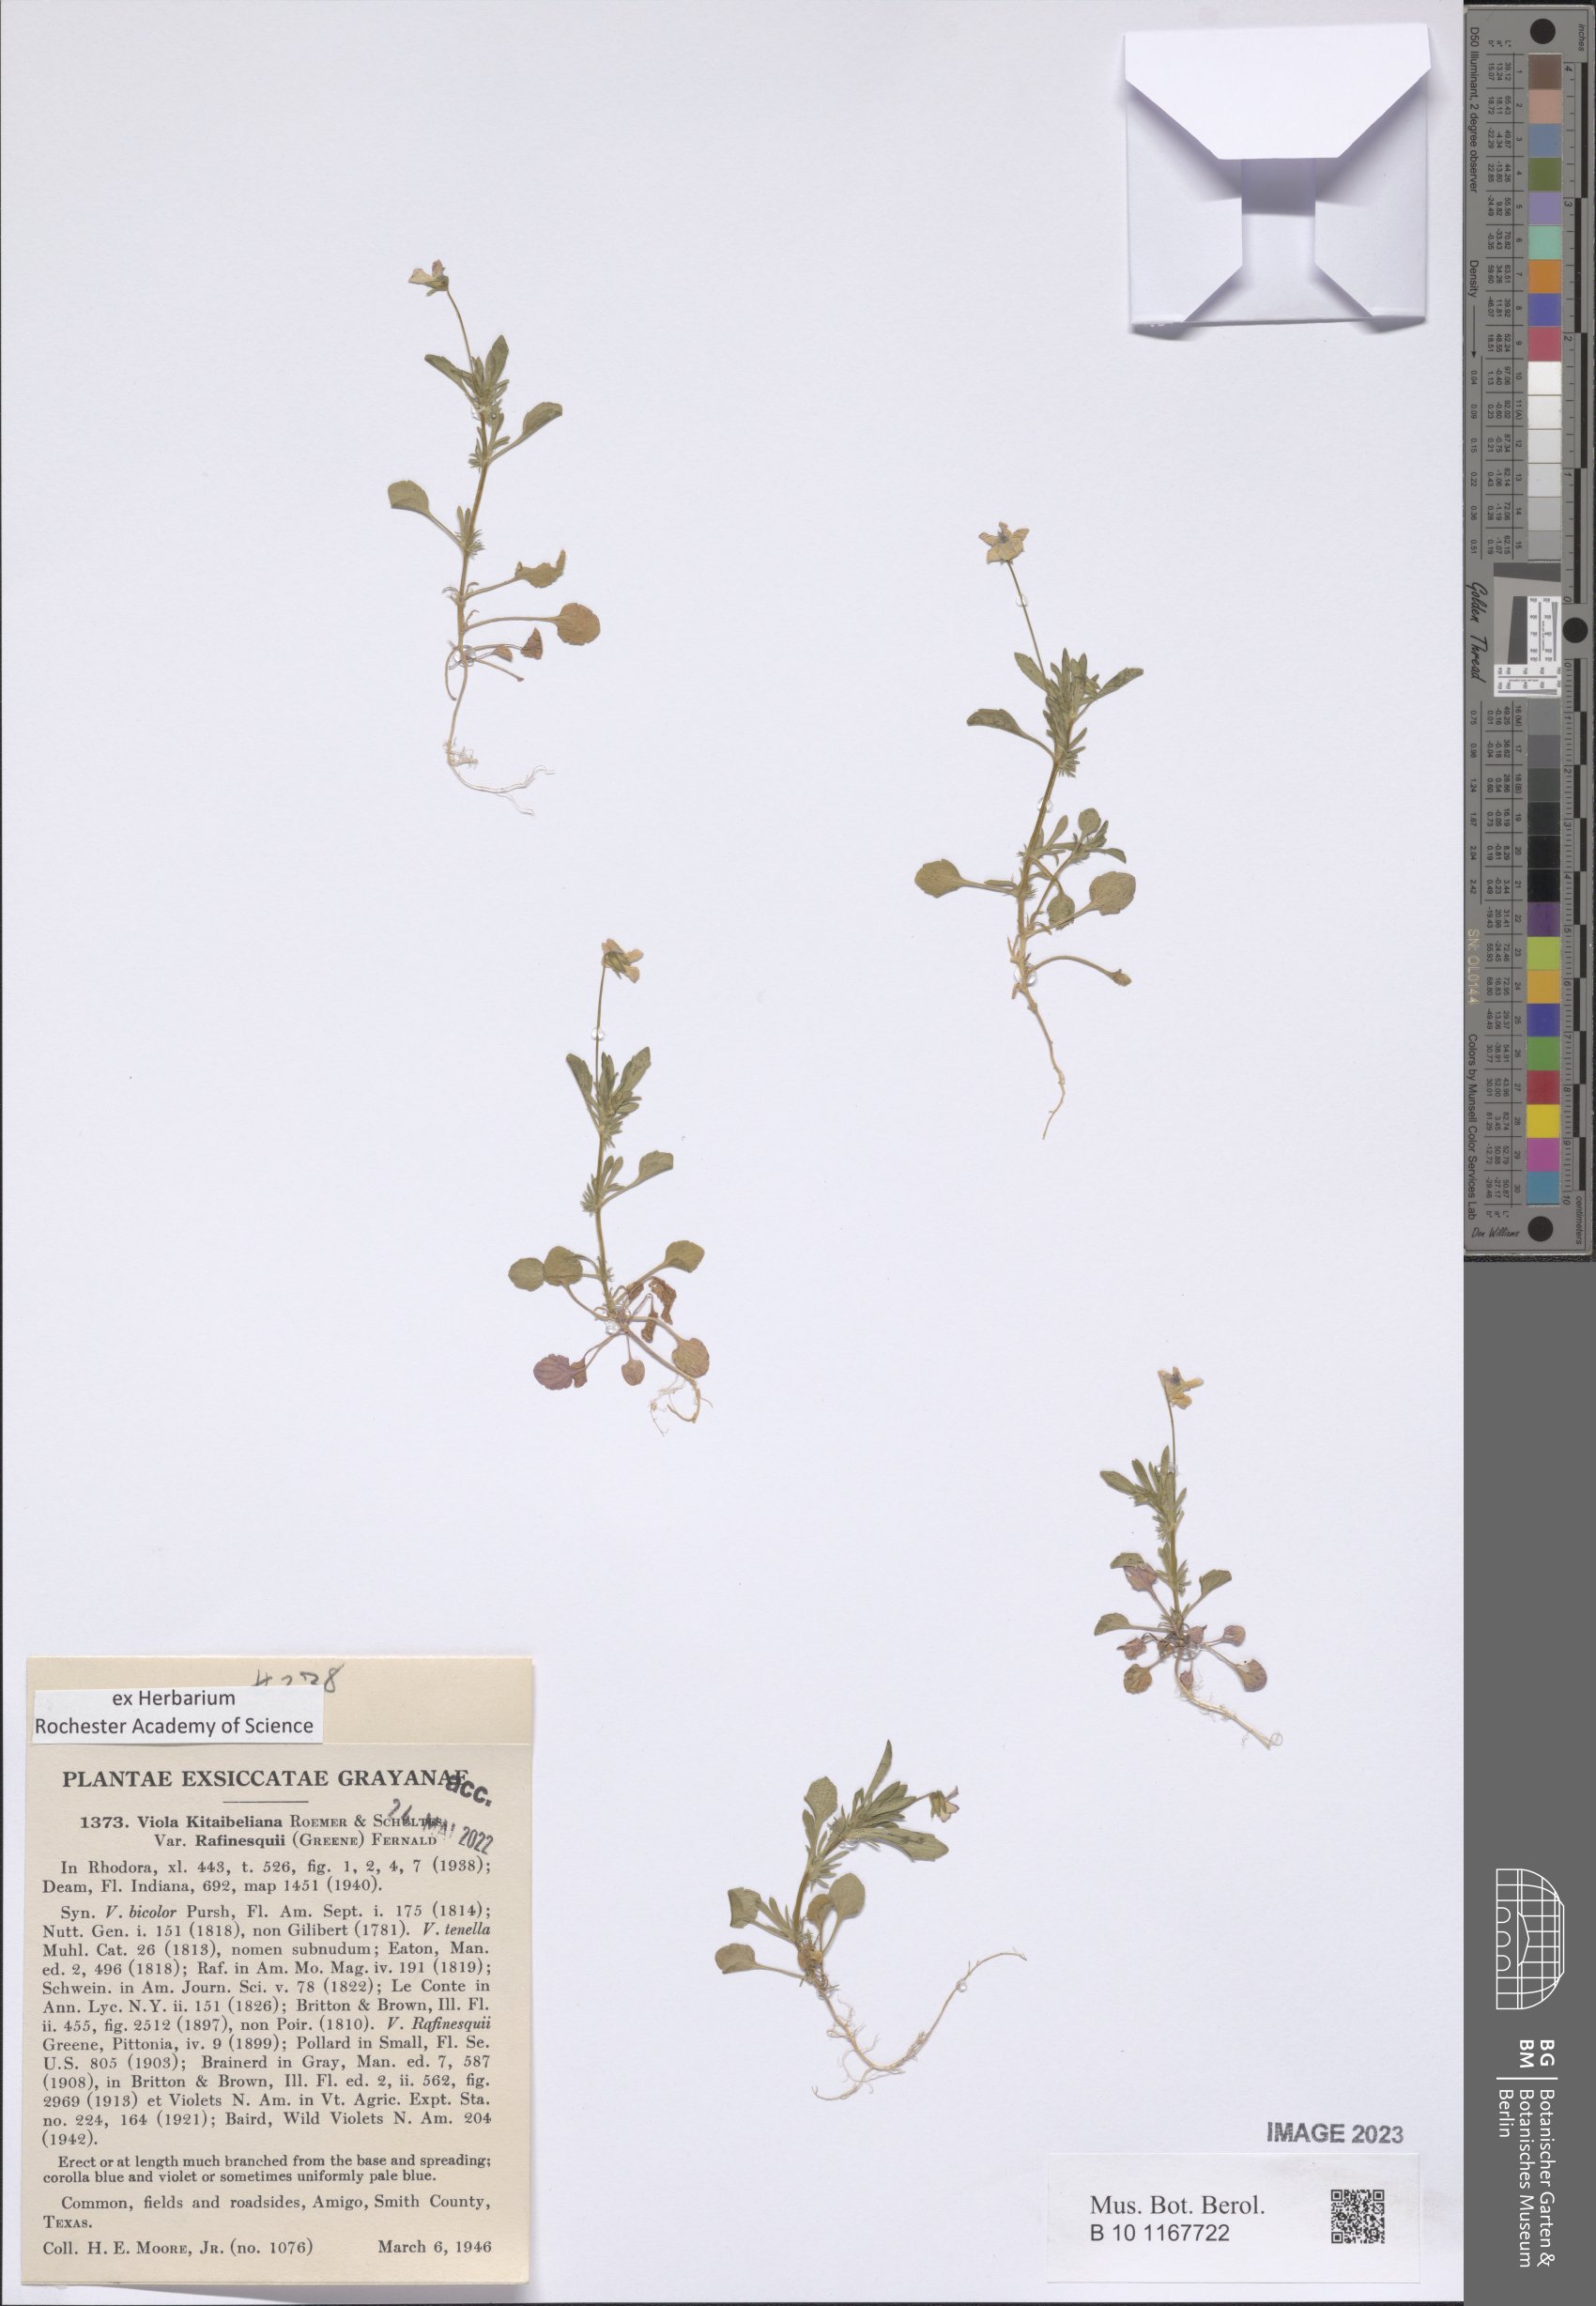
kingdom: Plantae
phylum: Tracheophyta
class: Magnoliopsida
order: Malpighiales
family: Violaceae
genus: Viola
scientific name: Viola rafinesquei
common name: American field pansy
